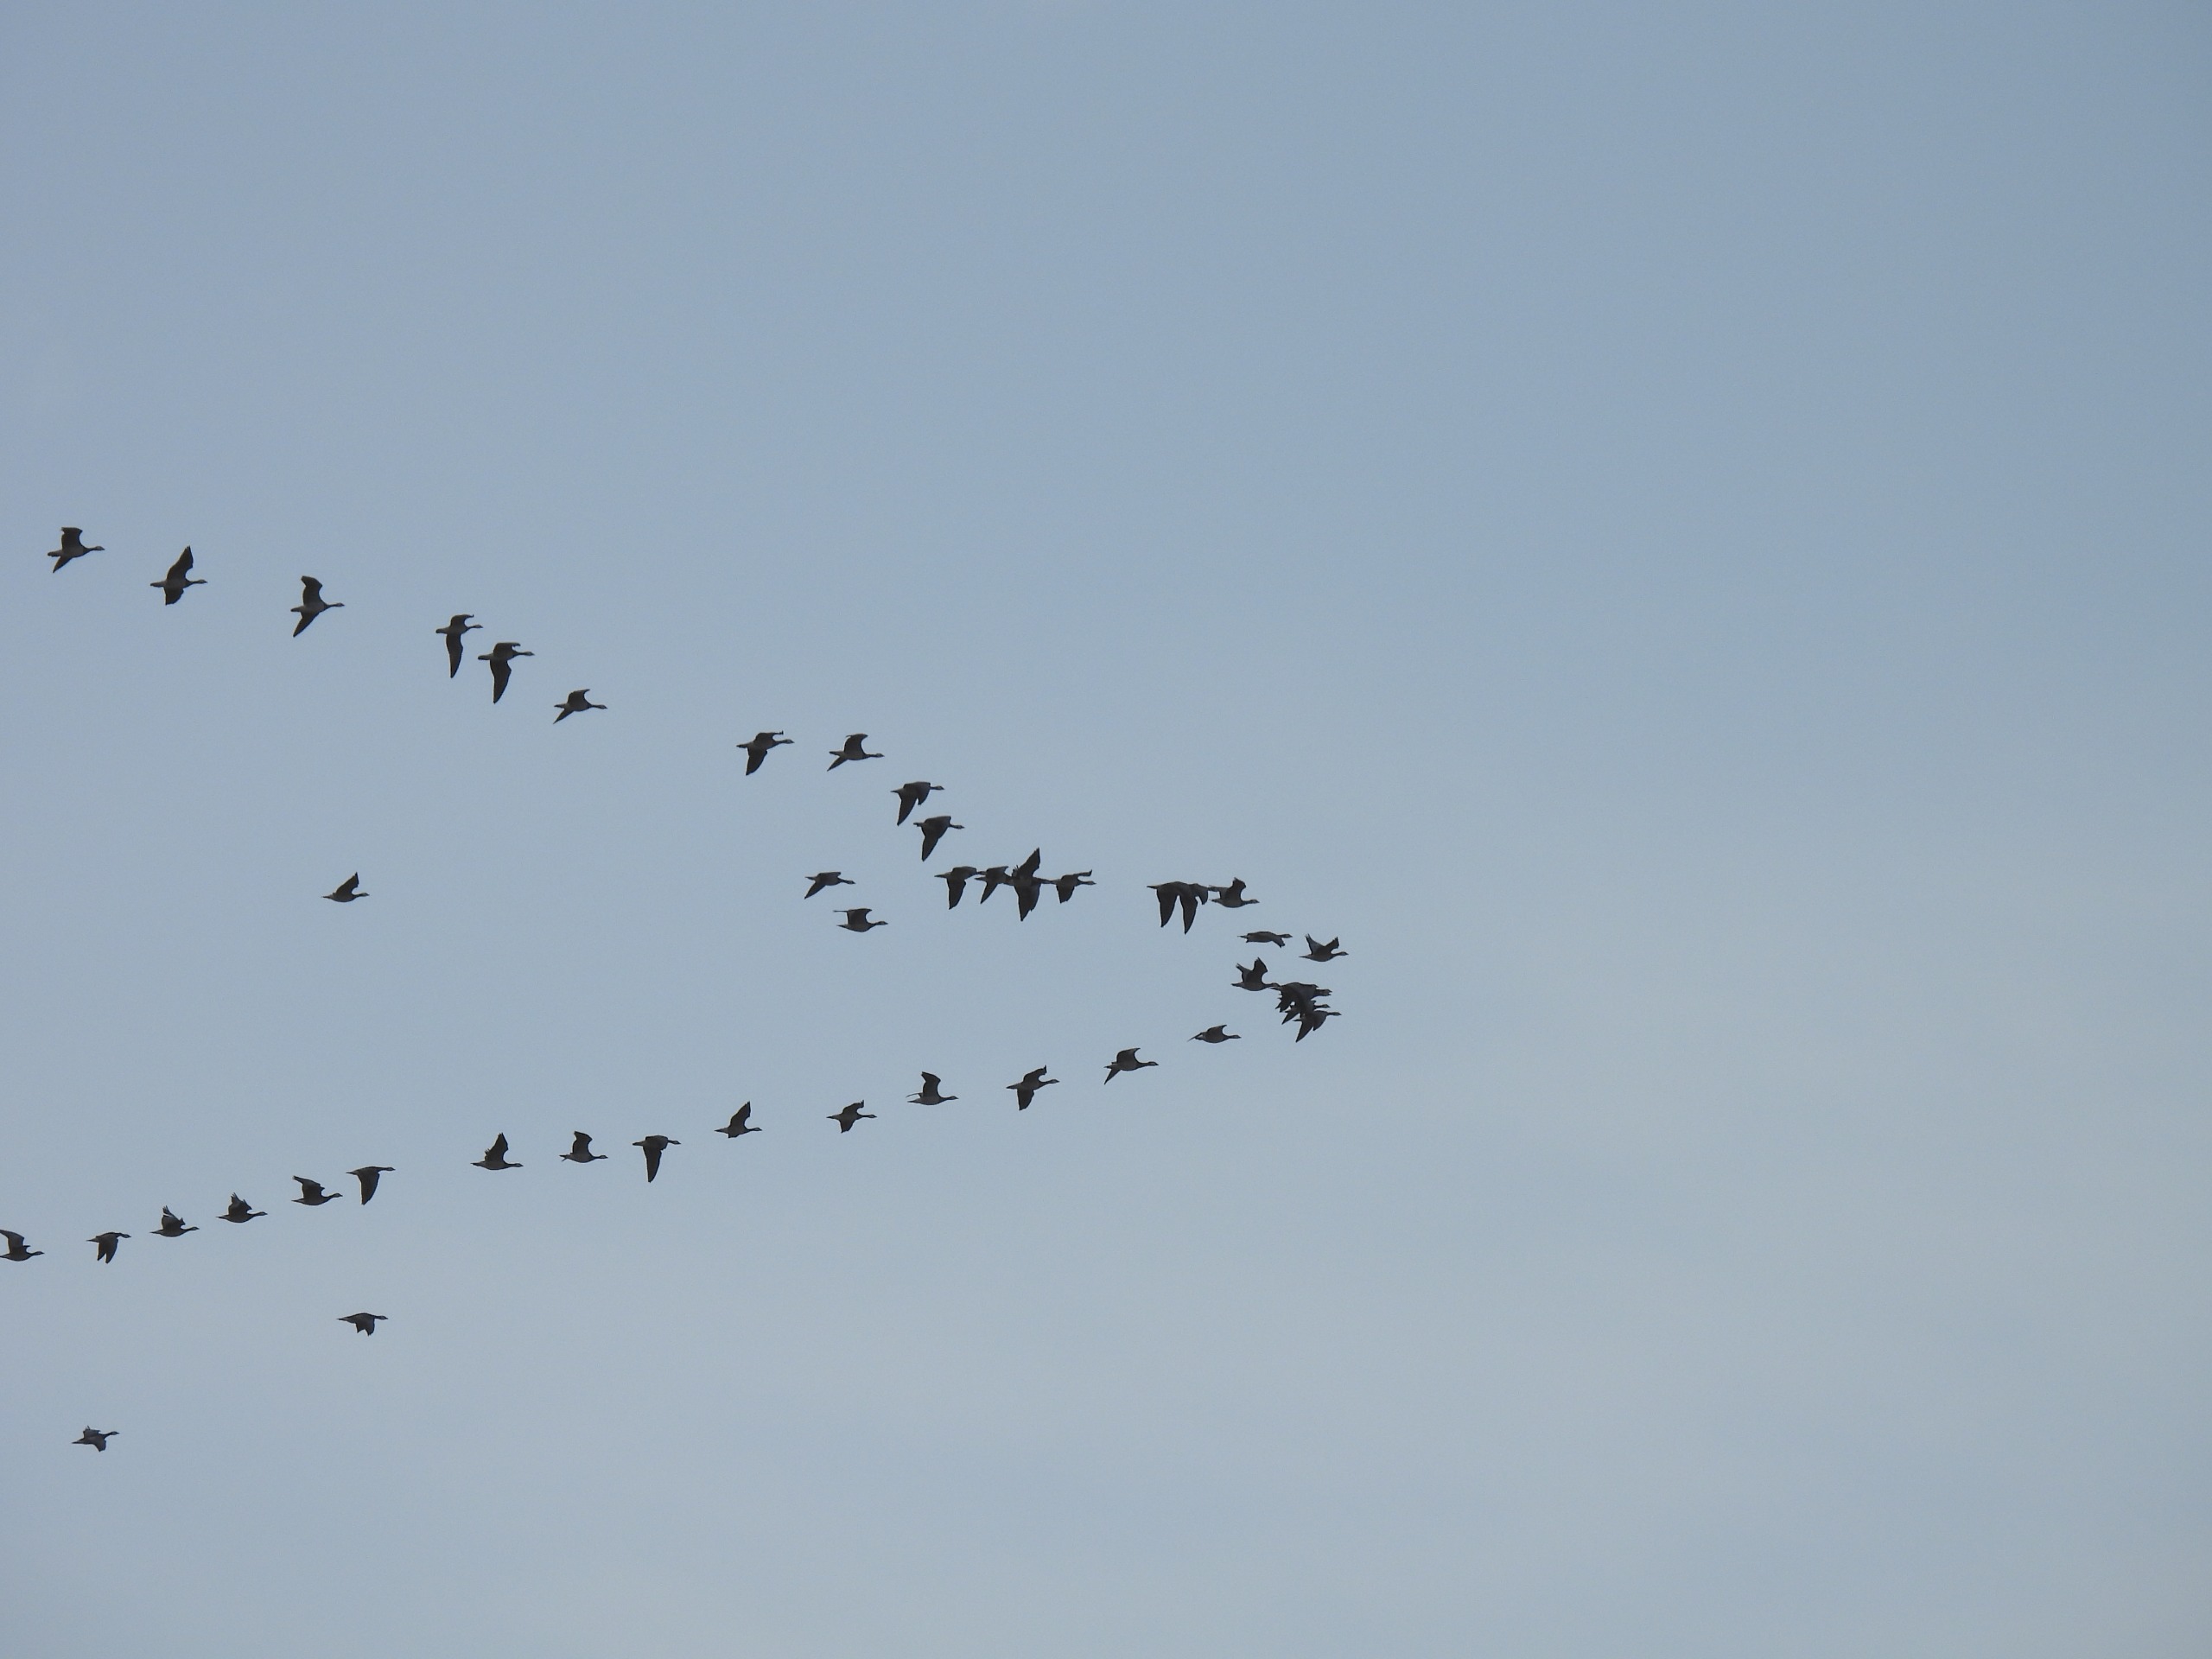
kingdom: Animalia
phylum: Chordata
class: Aves
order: Anseriformes
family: Anatidae
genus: Branta
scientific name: Branta leucopsis
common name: Bramgås
